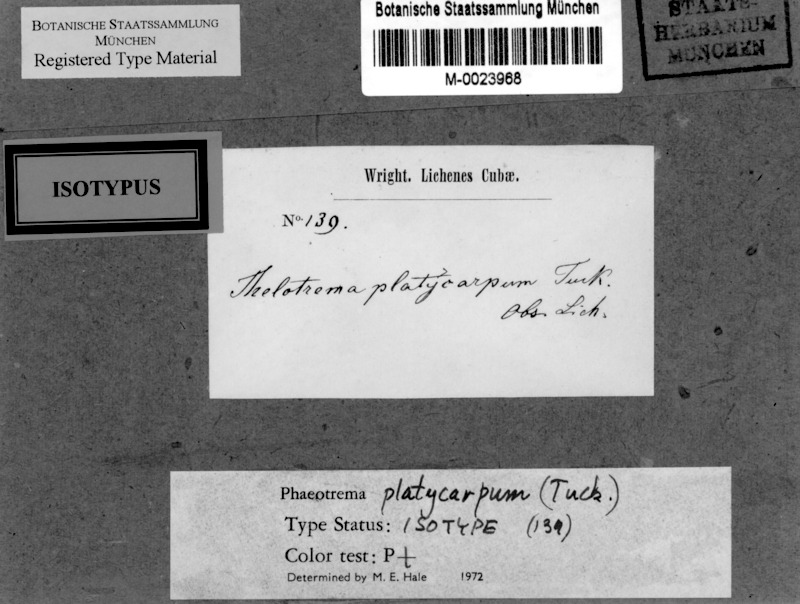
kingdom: Fungi
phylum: Ascomycota
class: Lecanoromycetes
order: Ostropales
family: Graphidaceae
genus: Asteristion
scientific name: Asteristion platycarpum
